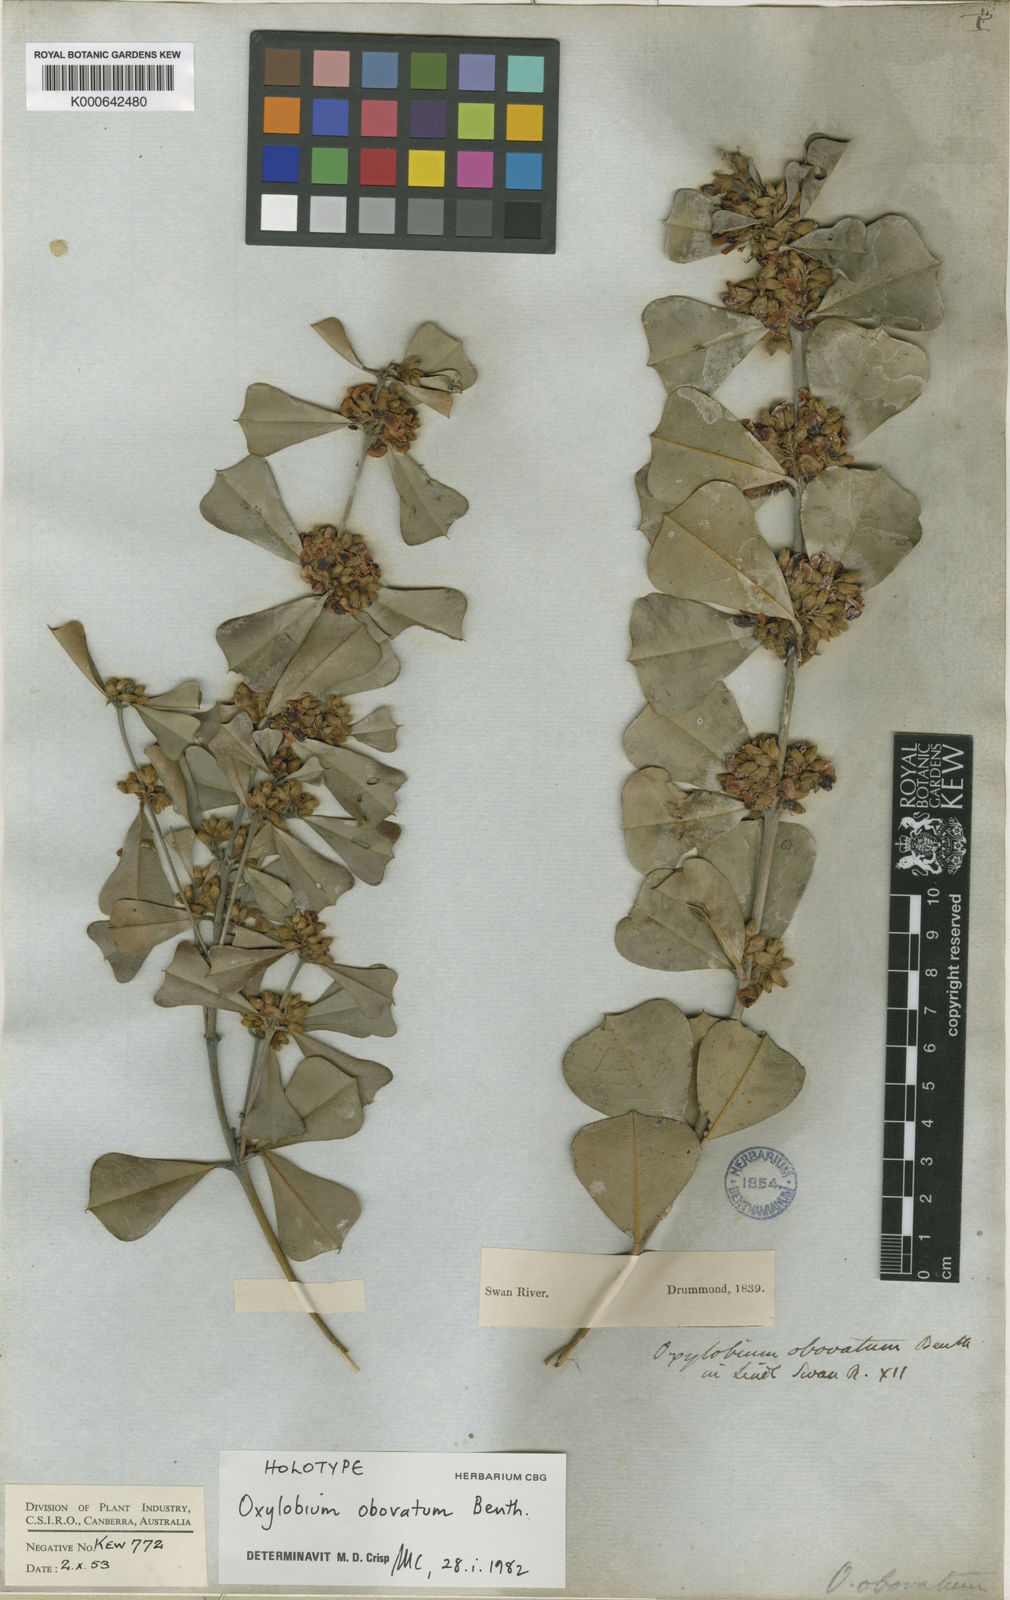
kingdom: Plantae
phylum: Tracheophyta
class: Magnoliopsida
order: Fabales
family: Fabaceae
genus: Gastrolobium
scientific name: Gastrolobium obovatum
